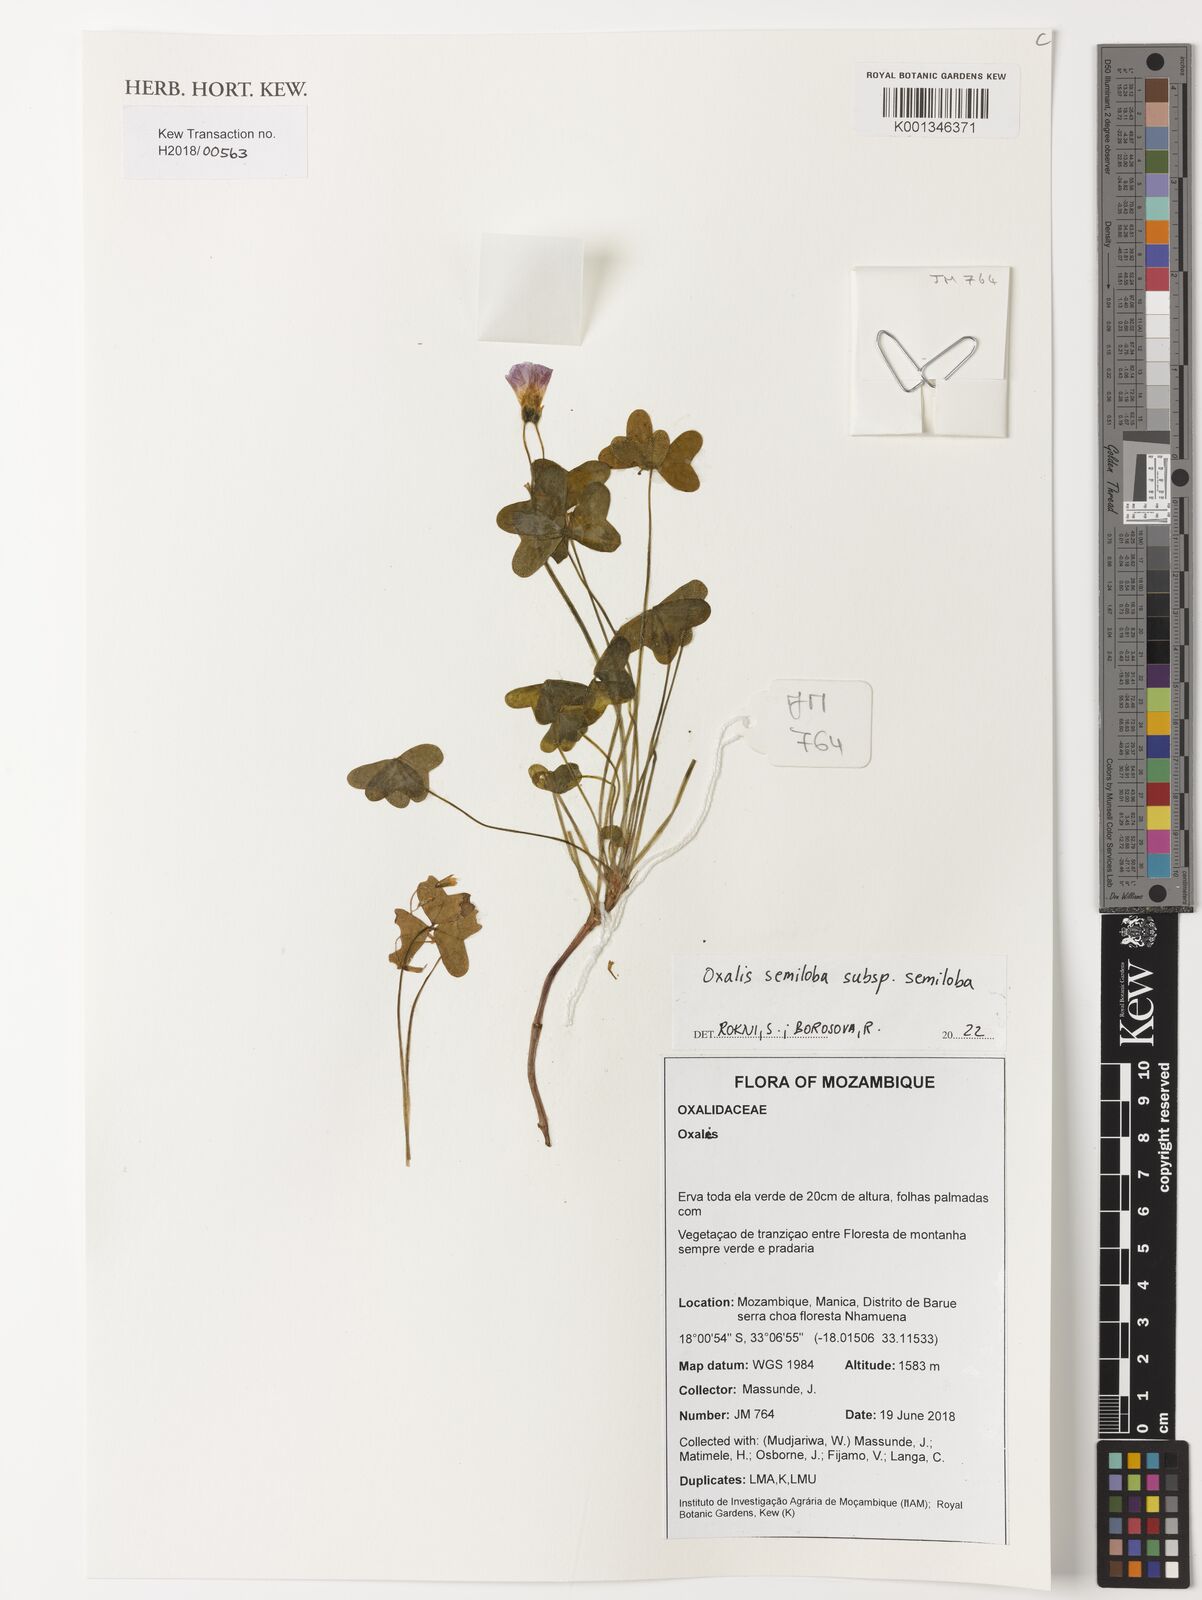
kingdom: Plantae
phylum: Tracheophyta
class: Magnoliopsida
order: Oxalidales
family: Oxalidaceae
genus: Oxalis
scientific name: Oxalis semiloba
